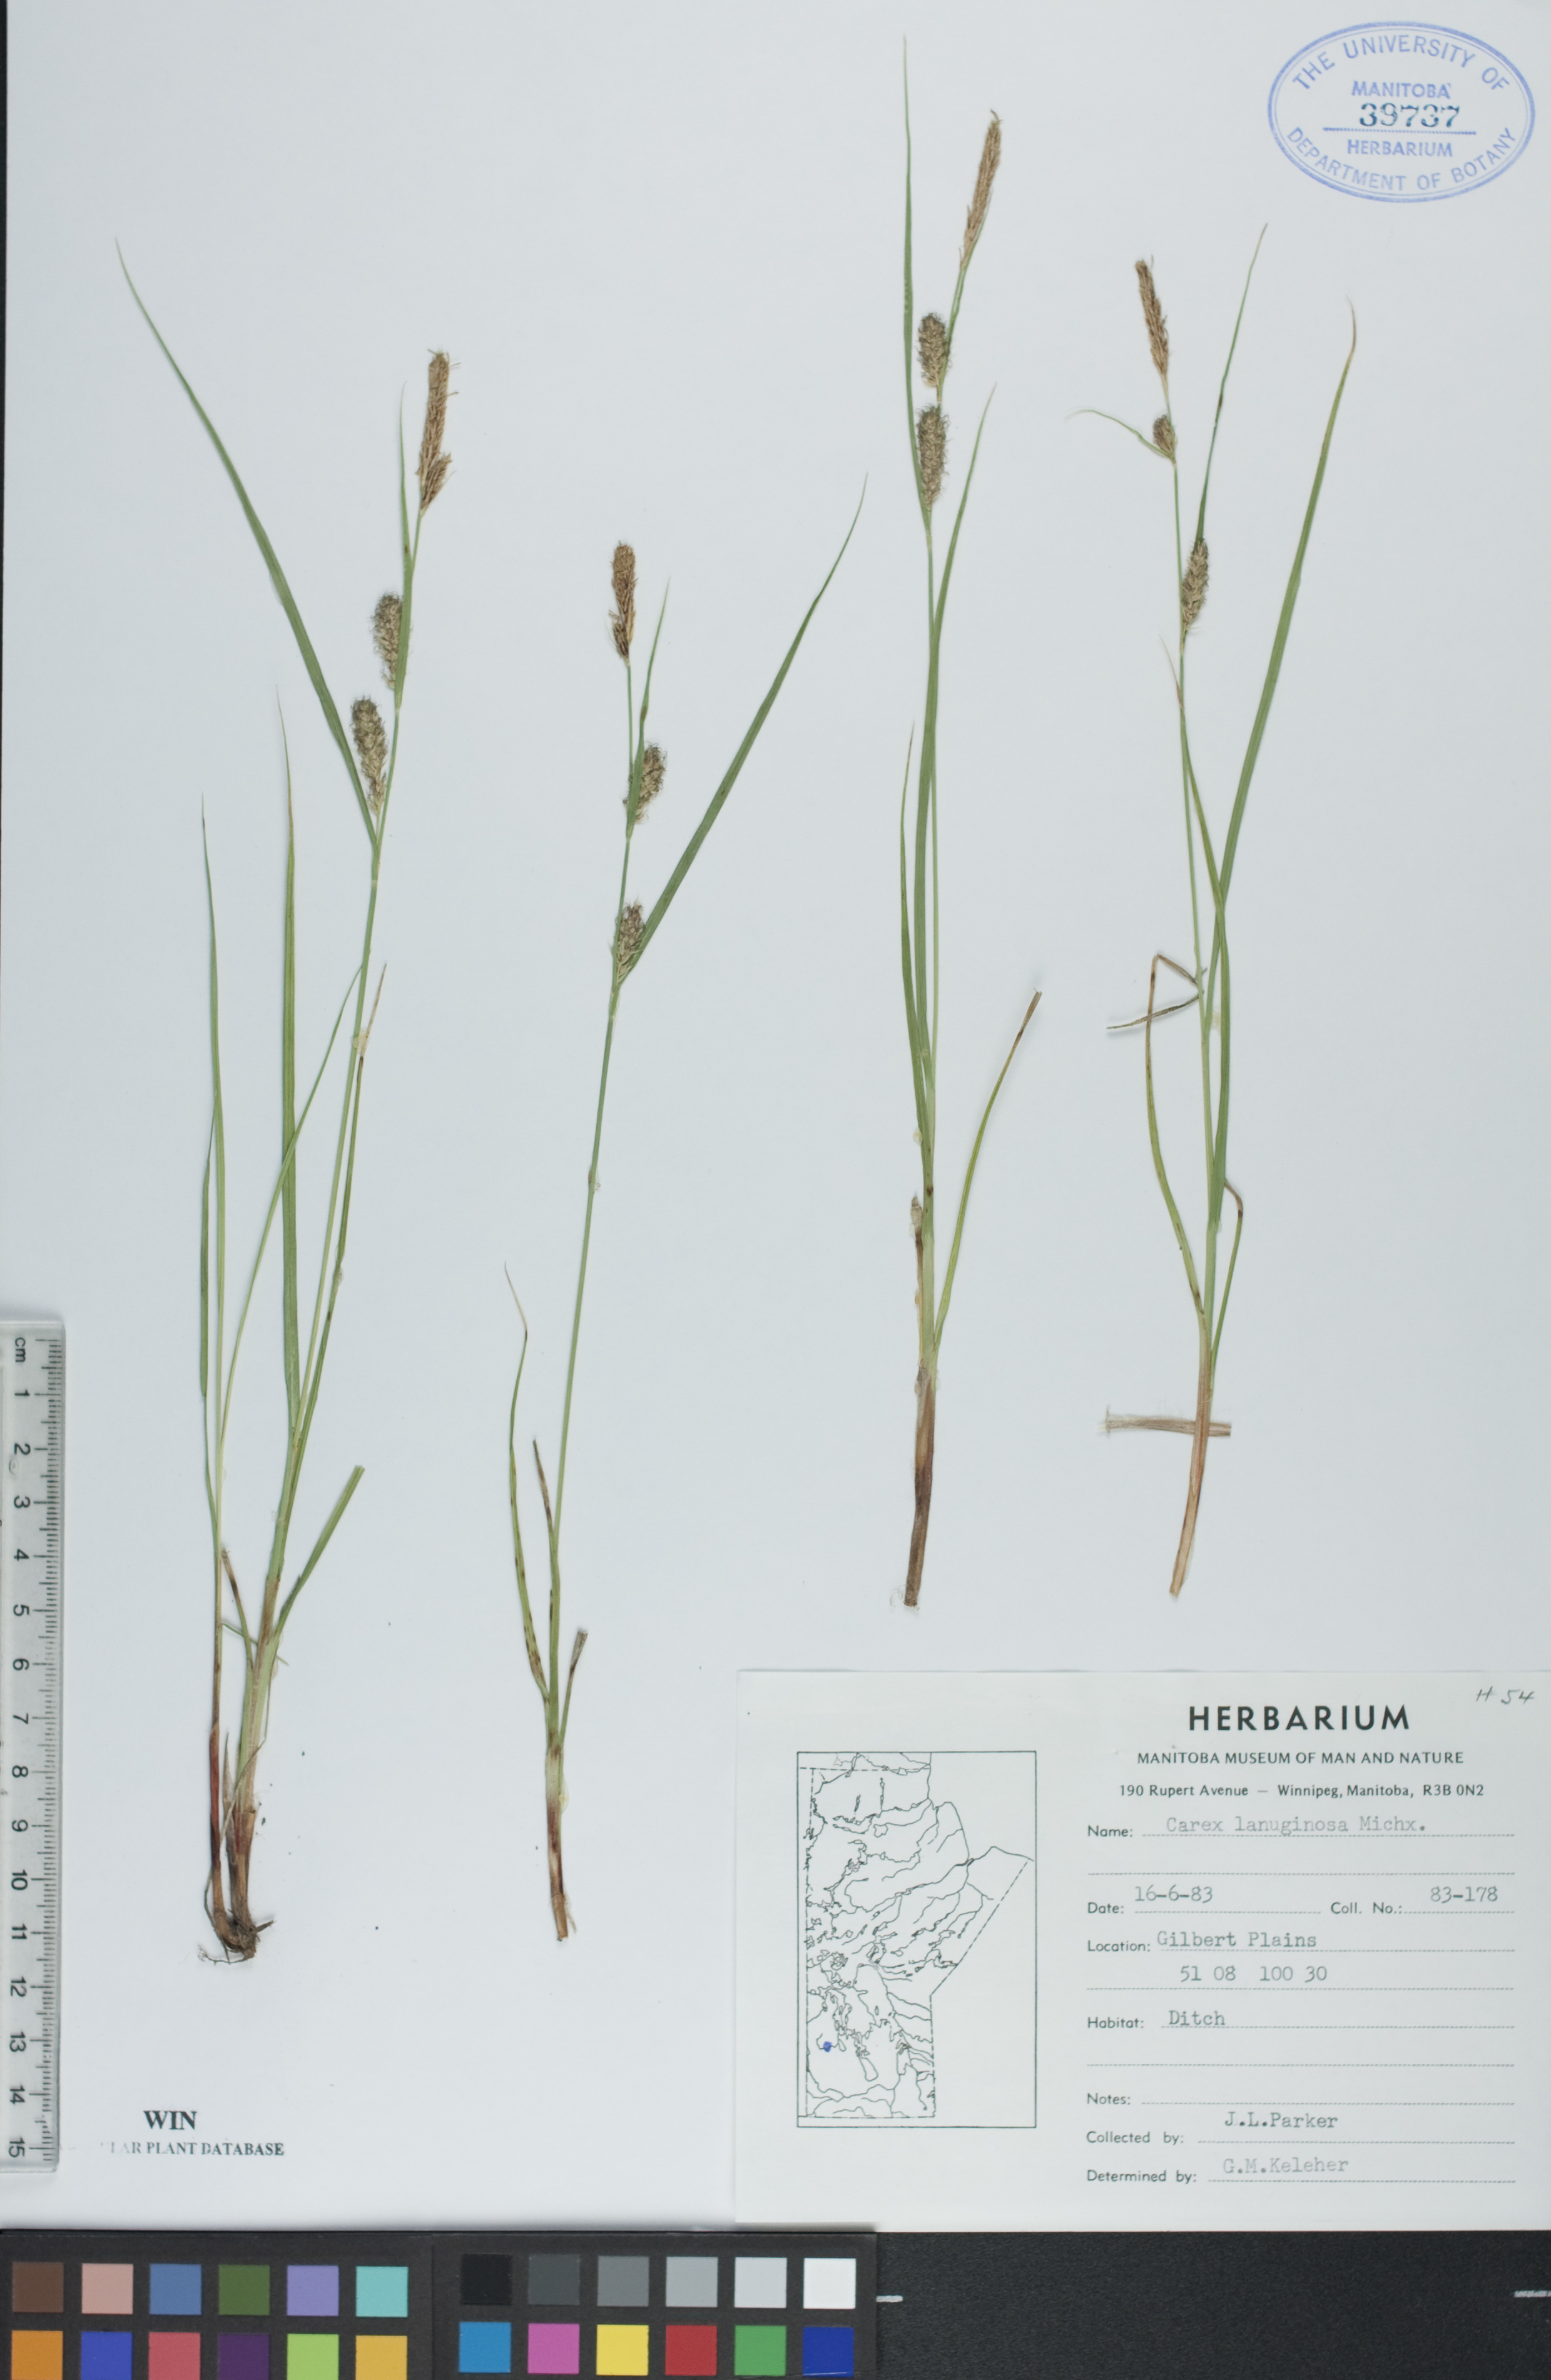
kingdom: Plantae
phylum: Tracheophyta
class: Liliopsida
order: Poales
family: Cyperaceae
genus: Carex
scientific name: Carex lasiocarpa
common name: Slender sedge
